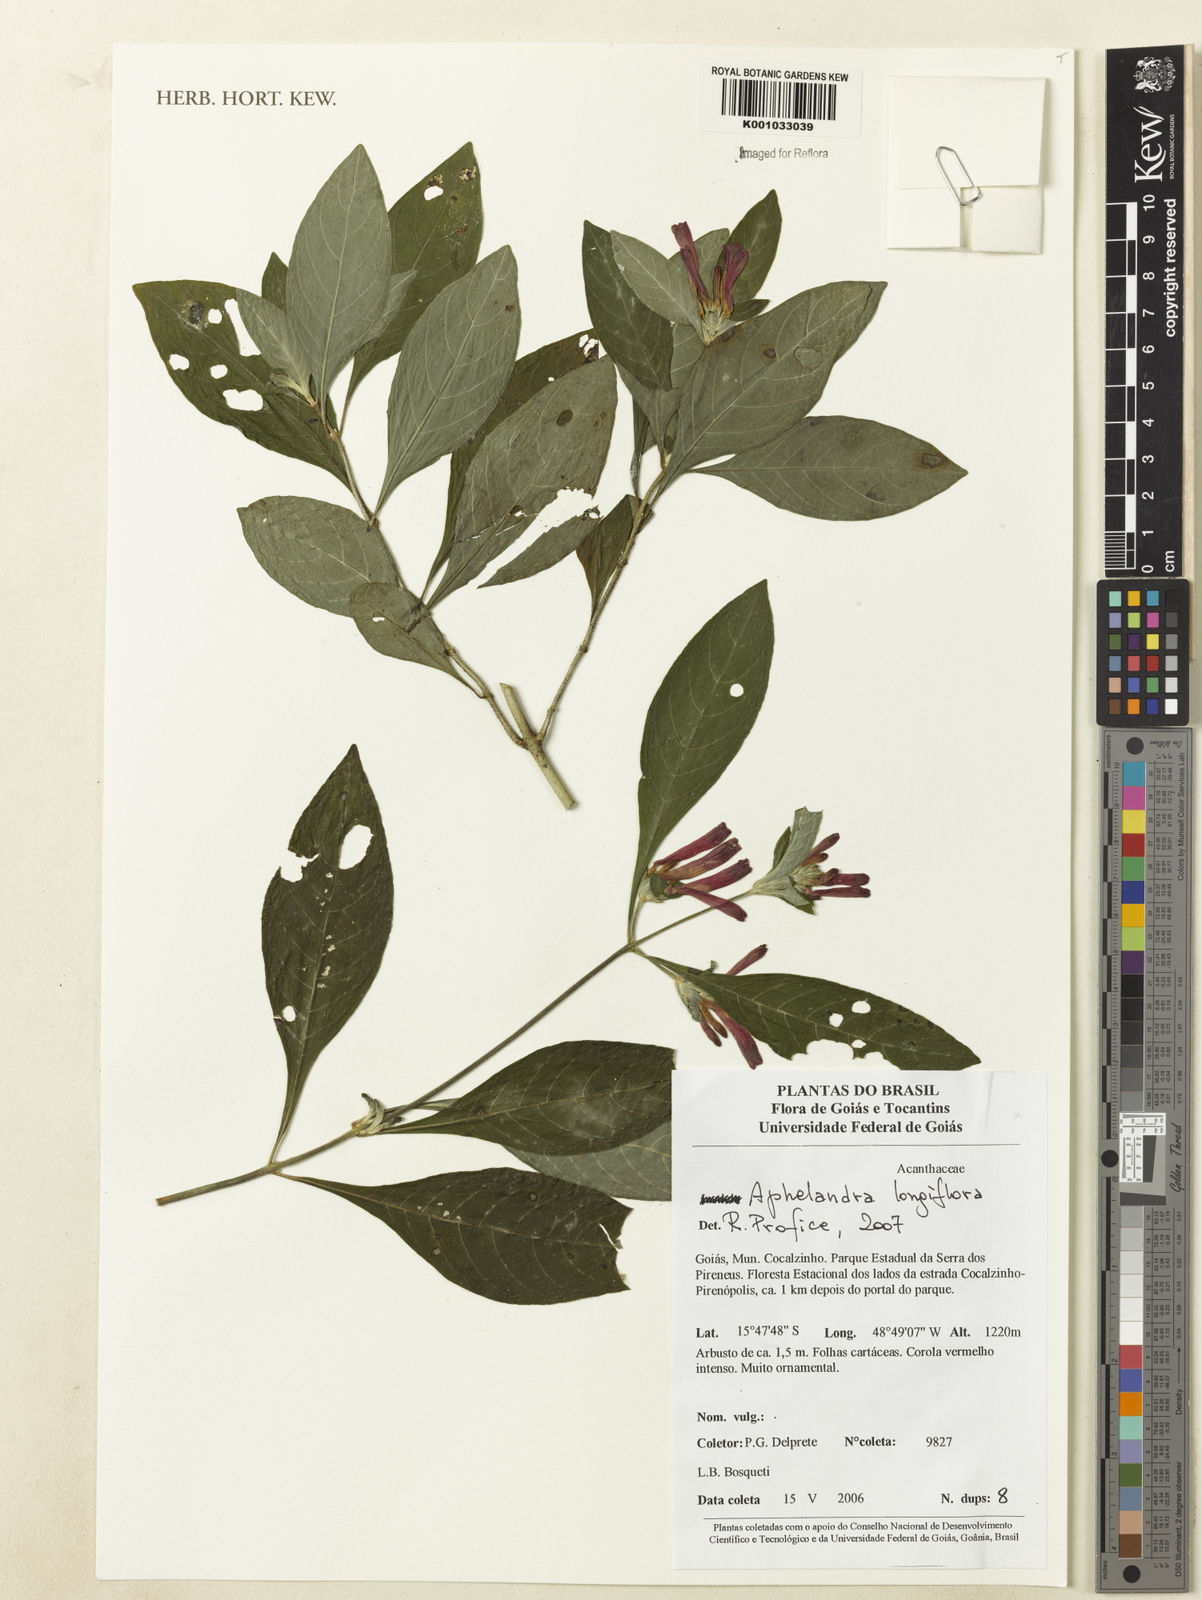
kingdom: Plantae
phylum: Tracheophyta
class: Magnoliopsida
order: Lamiales
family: Acanthaceae
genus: Aphelandra
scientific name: Aphelandra longiflora
